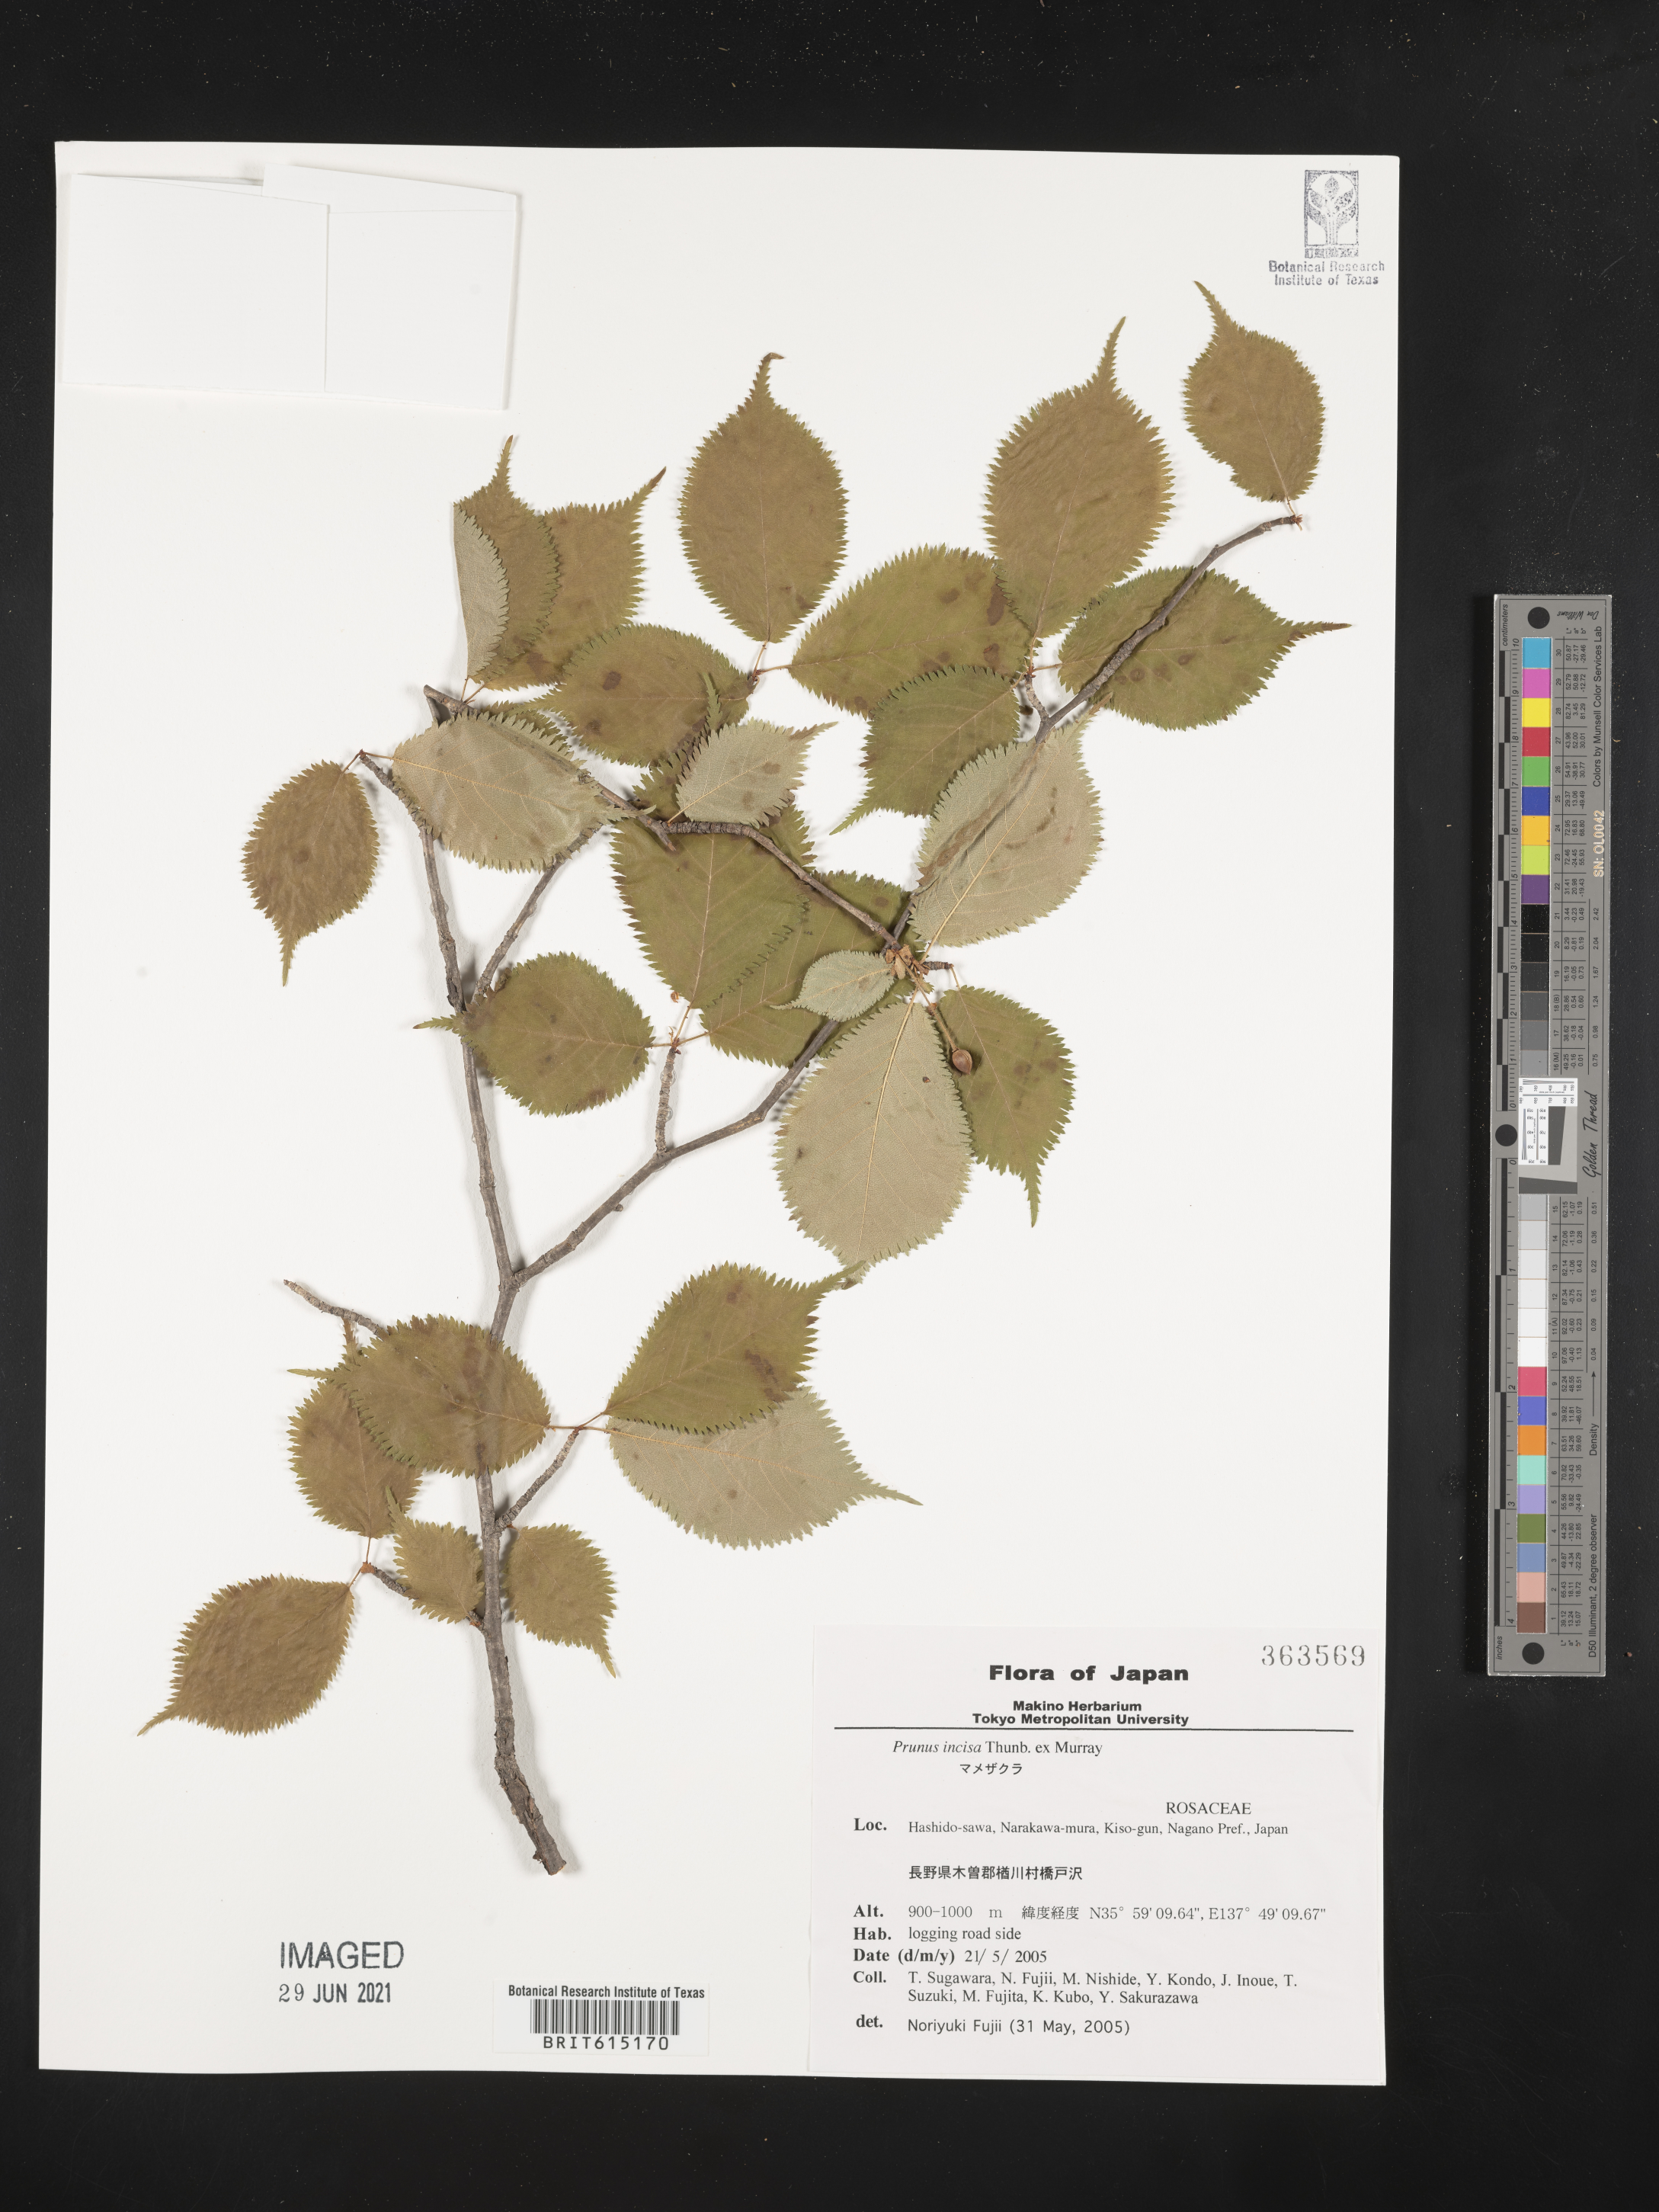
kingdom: Plantae
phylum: Tracheophyta
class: Magnoliopsida
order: Rosales
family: Rosaceae
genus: Prunus
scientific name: Prunus incisa
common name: Fuji cherry
